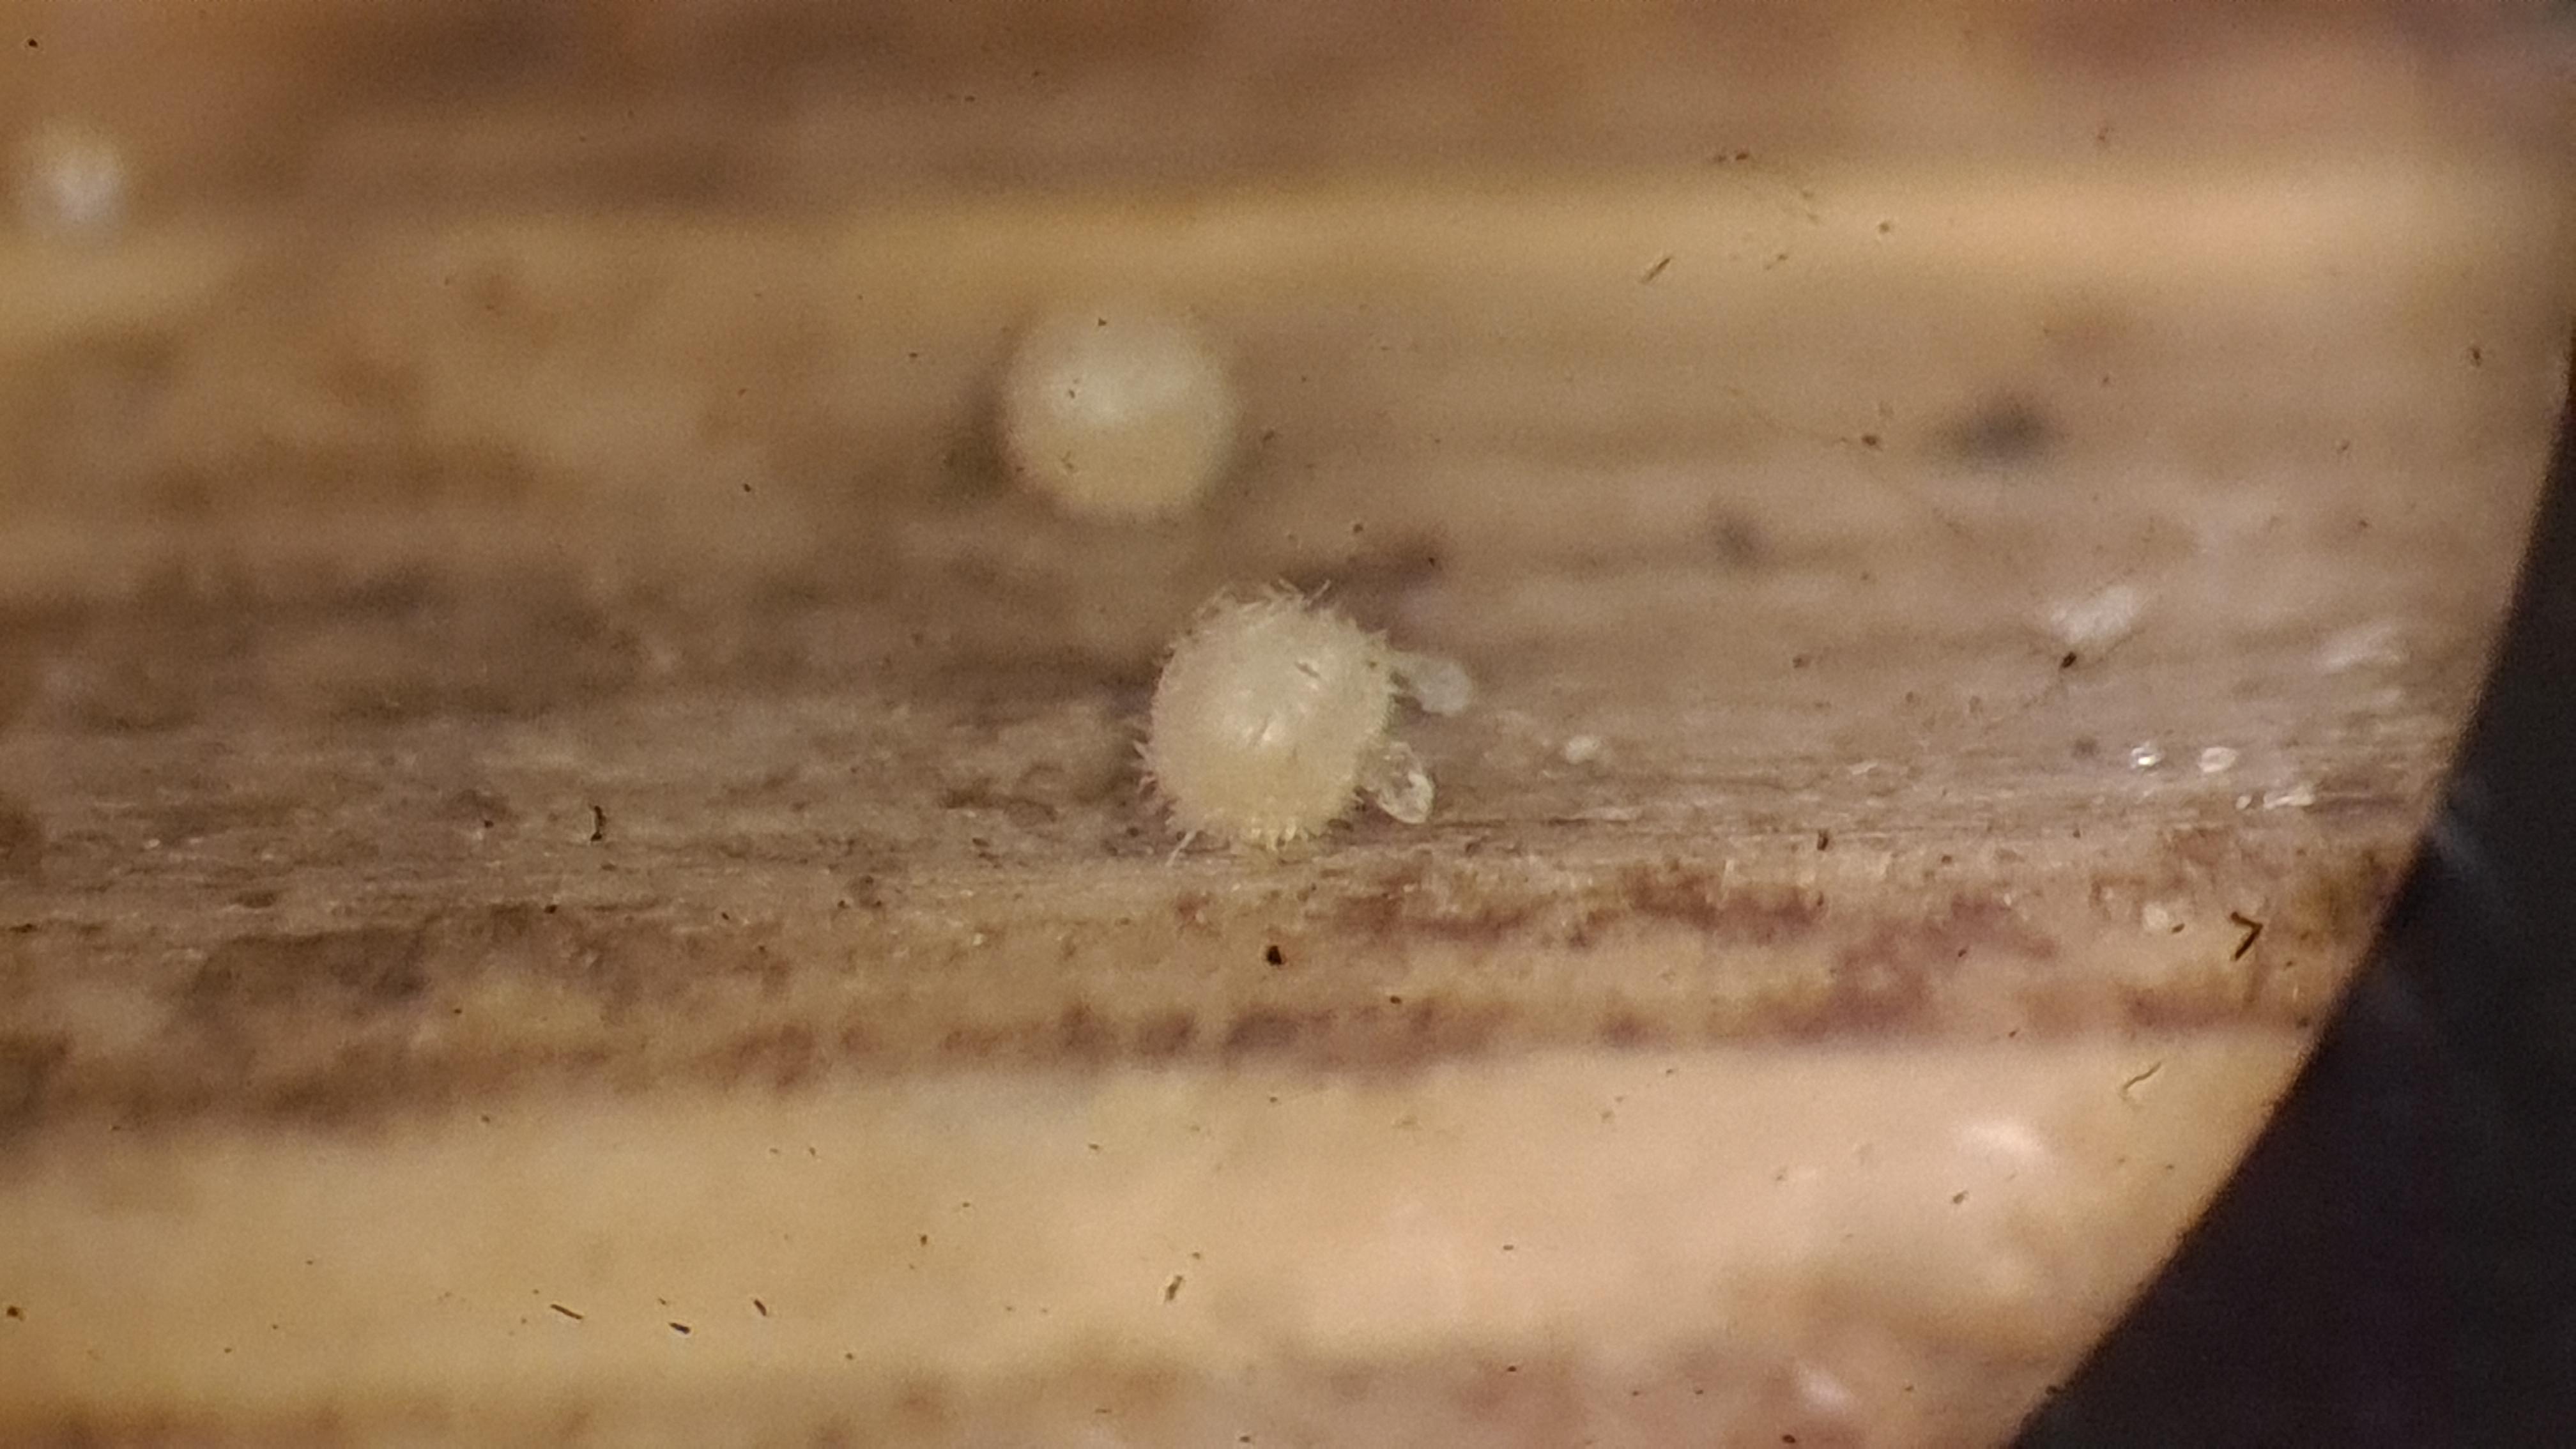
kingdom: Fungi
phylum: Ascomycota
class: Leotiomycetes
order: Helotiales
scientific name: Helotiales
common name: stilkskiveordenen
